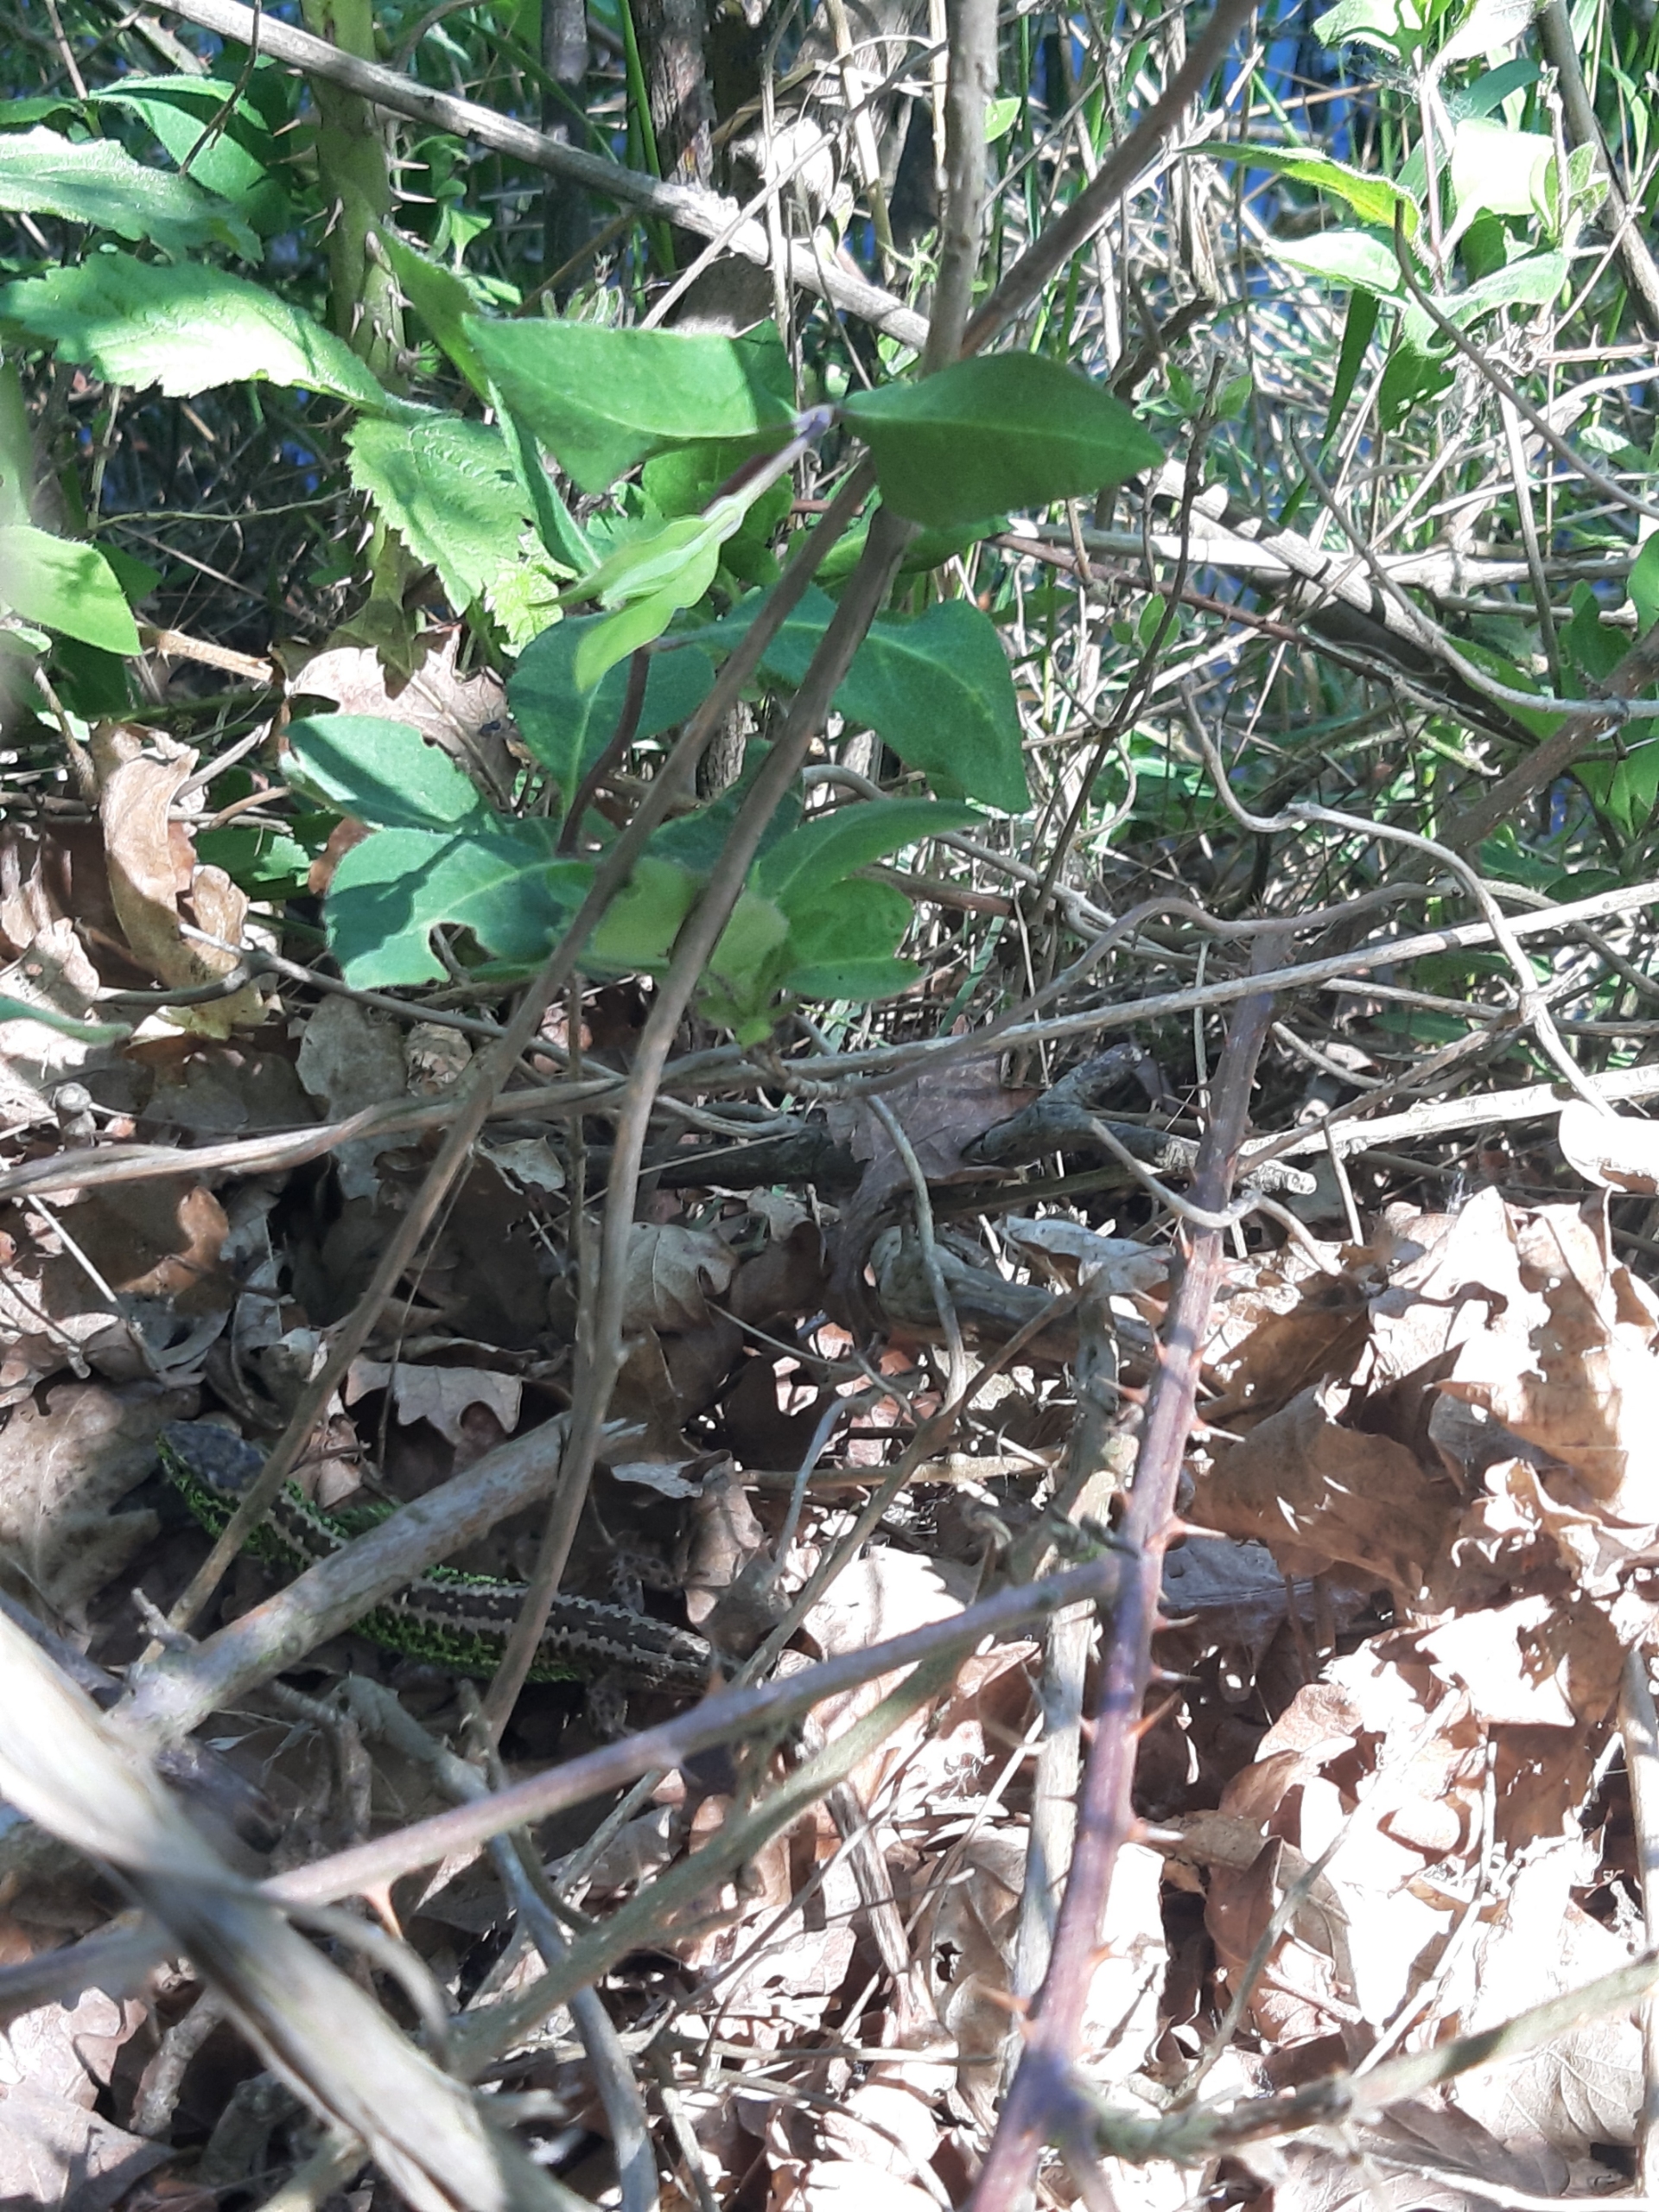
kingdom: Animalia
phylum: Chordata
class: Squamata
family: Lacertidae
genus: Lacerta
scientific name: Lacerta agilis
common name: Markfirben
